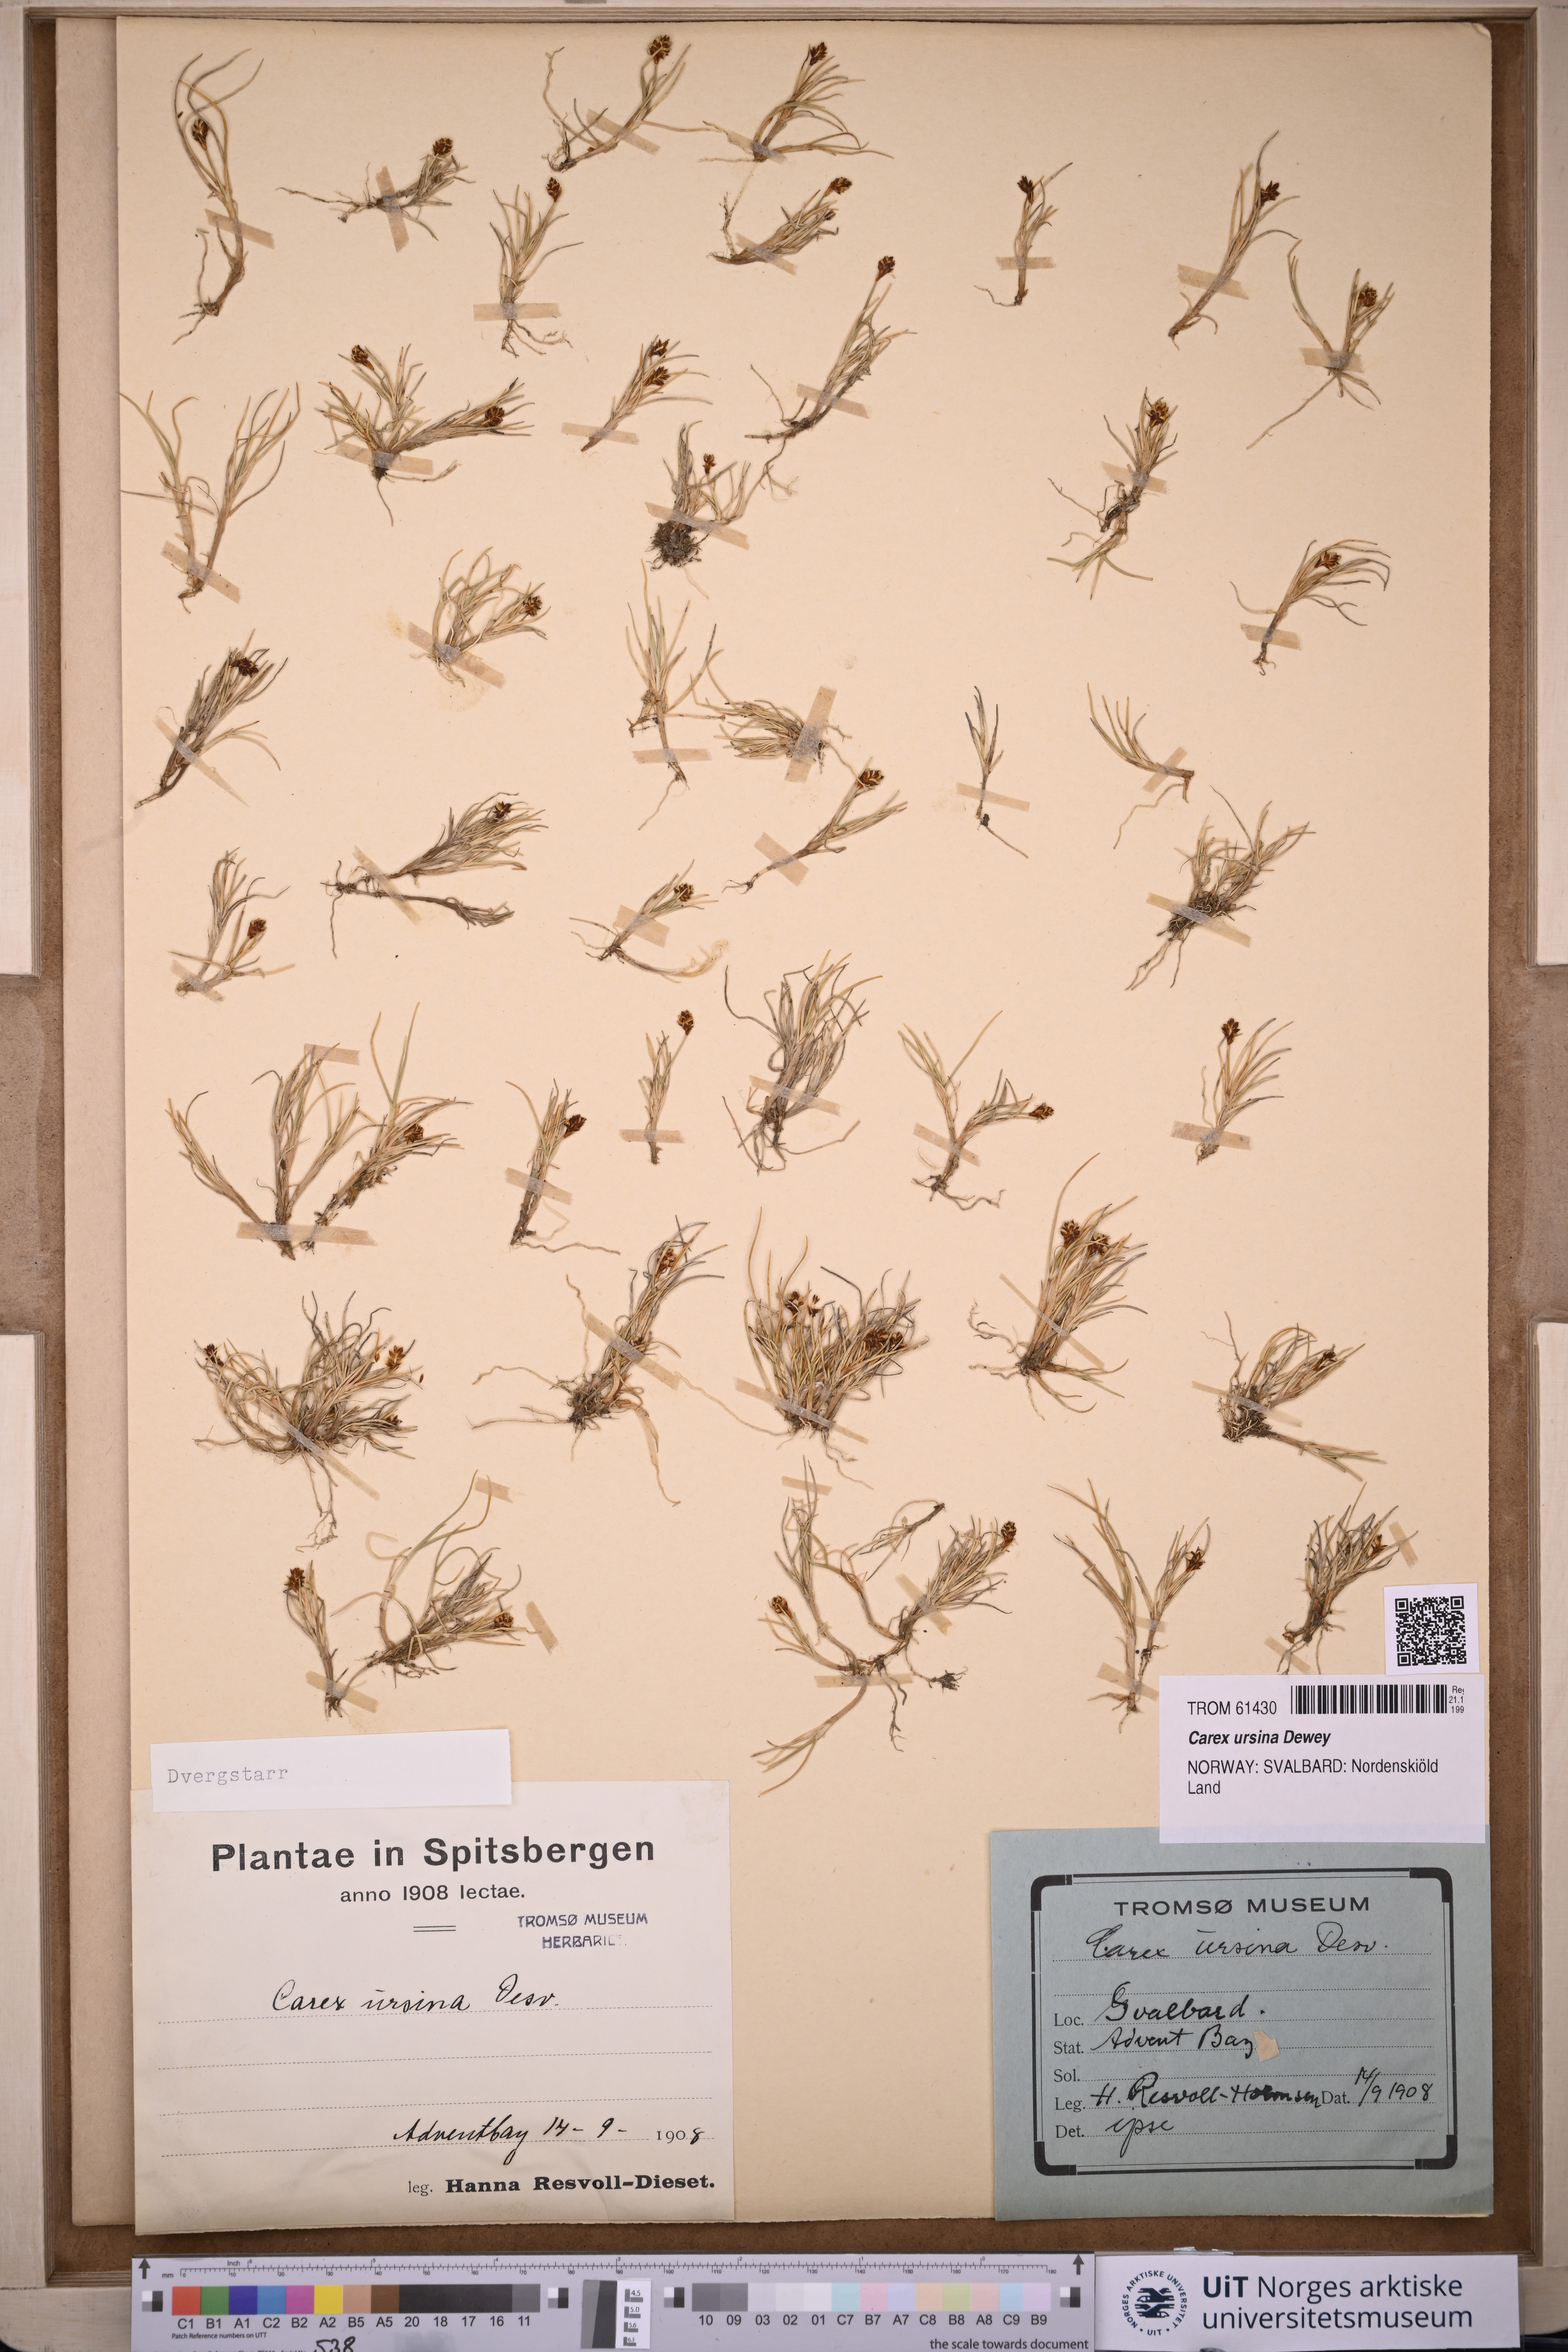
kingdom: Plantae
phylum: Tracheophyta
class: Liliopsida
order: Poales
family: Cyperaceae
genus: Carex
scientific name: Carex ursina
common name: Bear sedge
